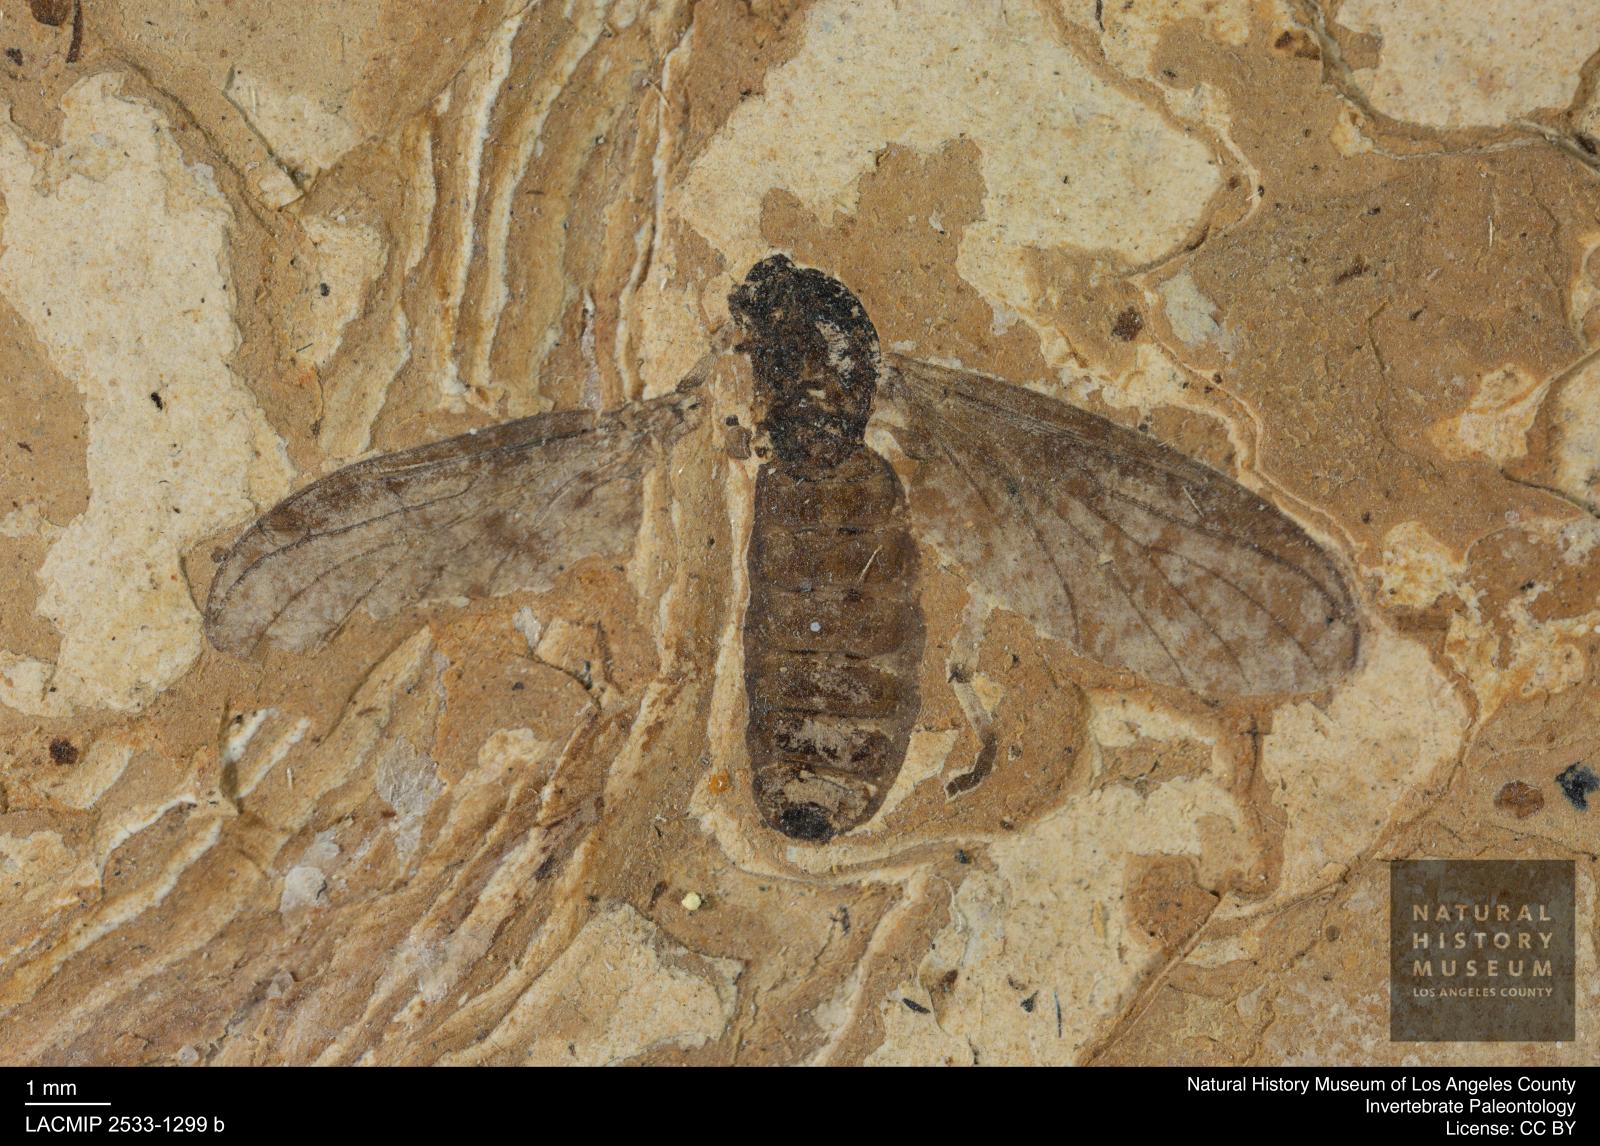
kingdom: Animalia
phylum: Arthropoda
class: Insecta
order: Diptera
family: Bibionidae
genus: Plecia
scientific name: Plecia pinguis
